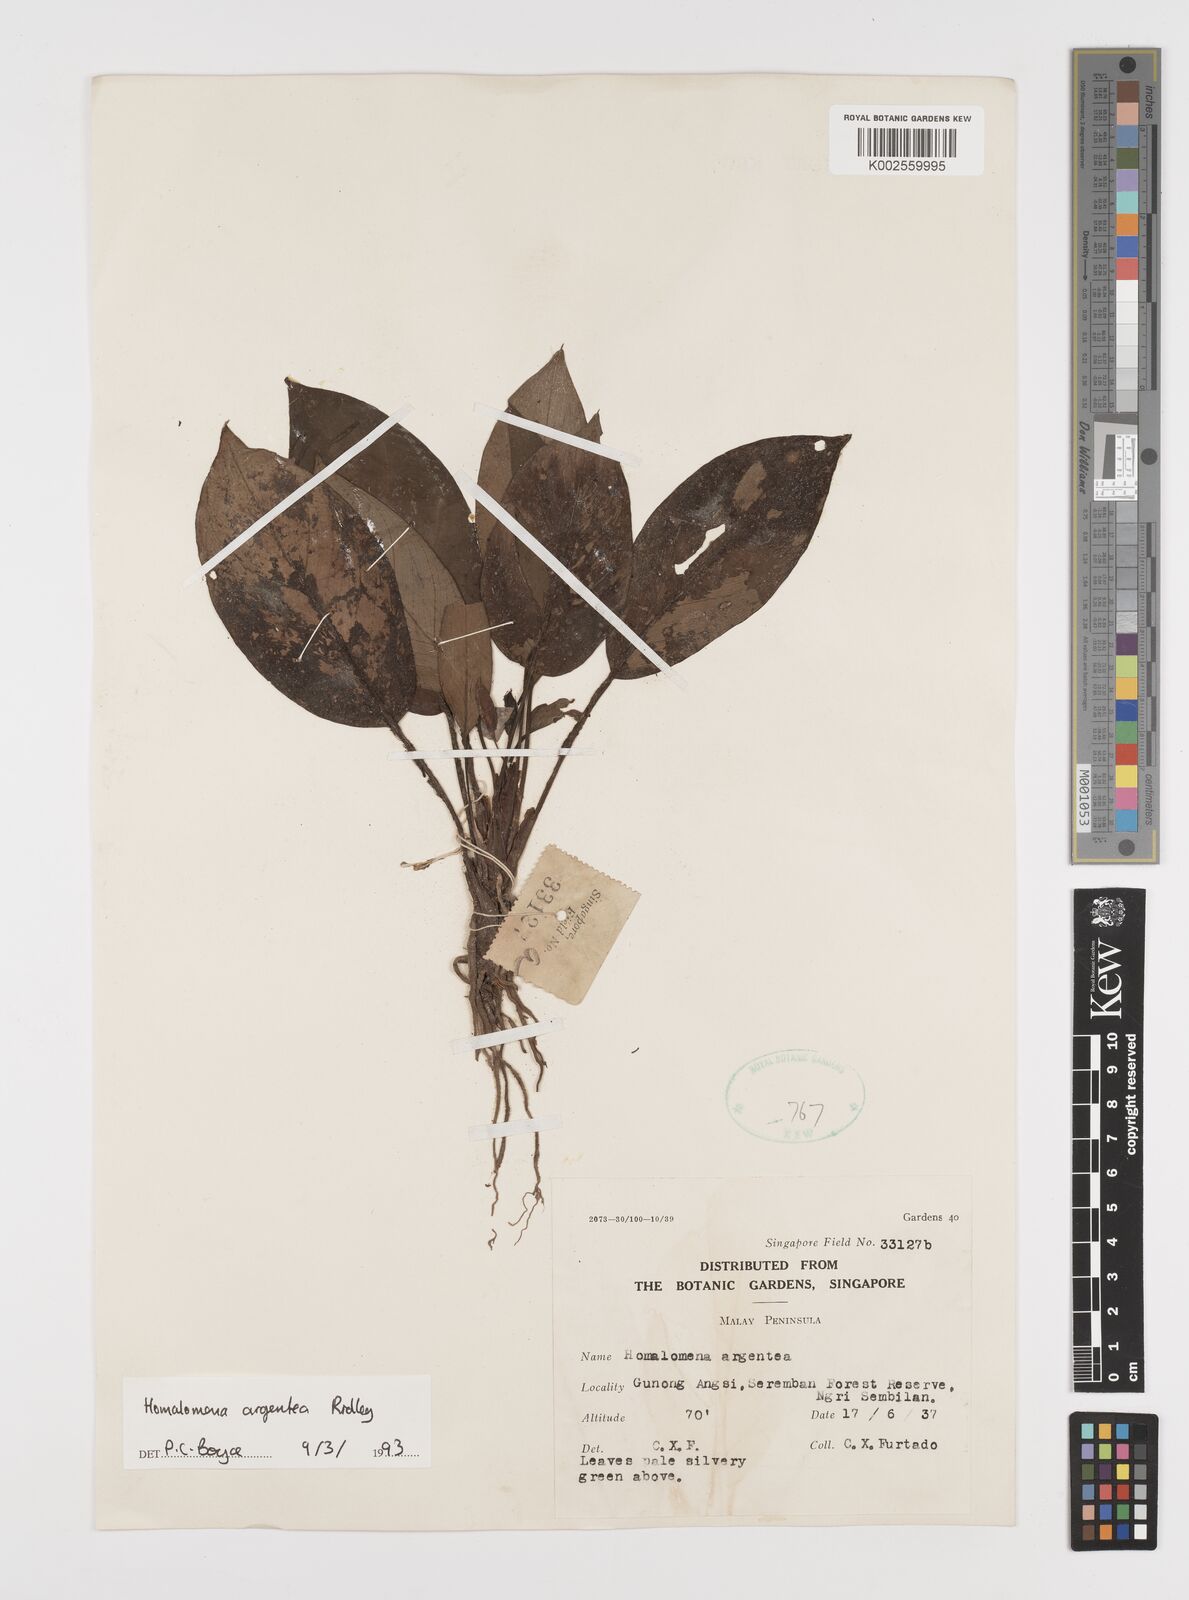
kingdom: Plantae
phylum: Tracheophyta
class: Liliopsida
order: Alismatales
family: Araceae
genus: Homalomena
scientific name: Homalomena argentea
